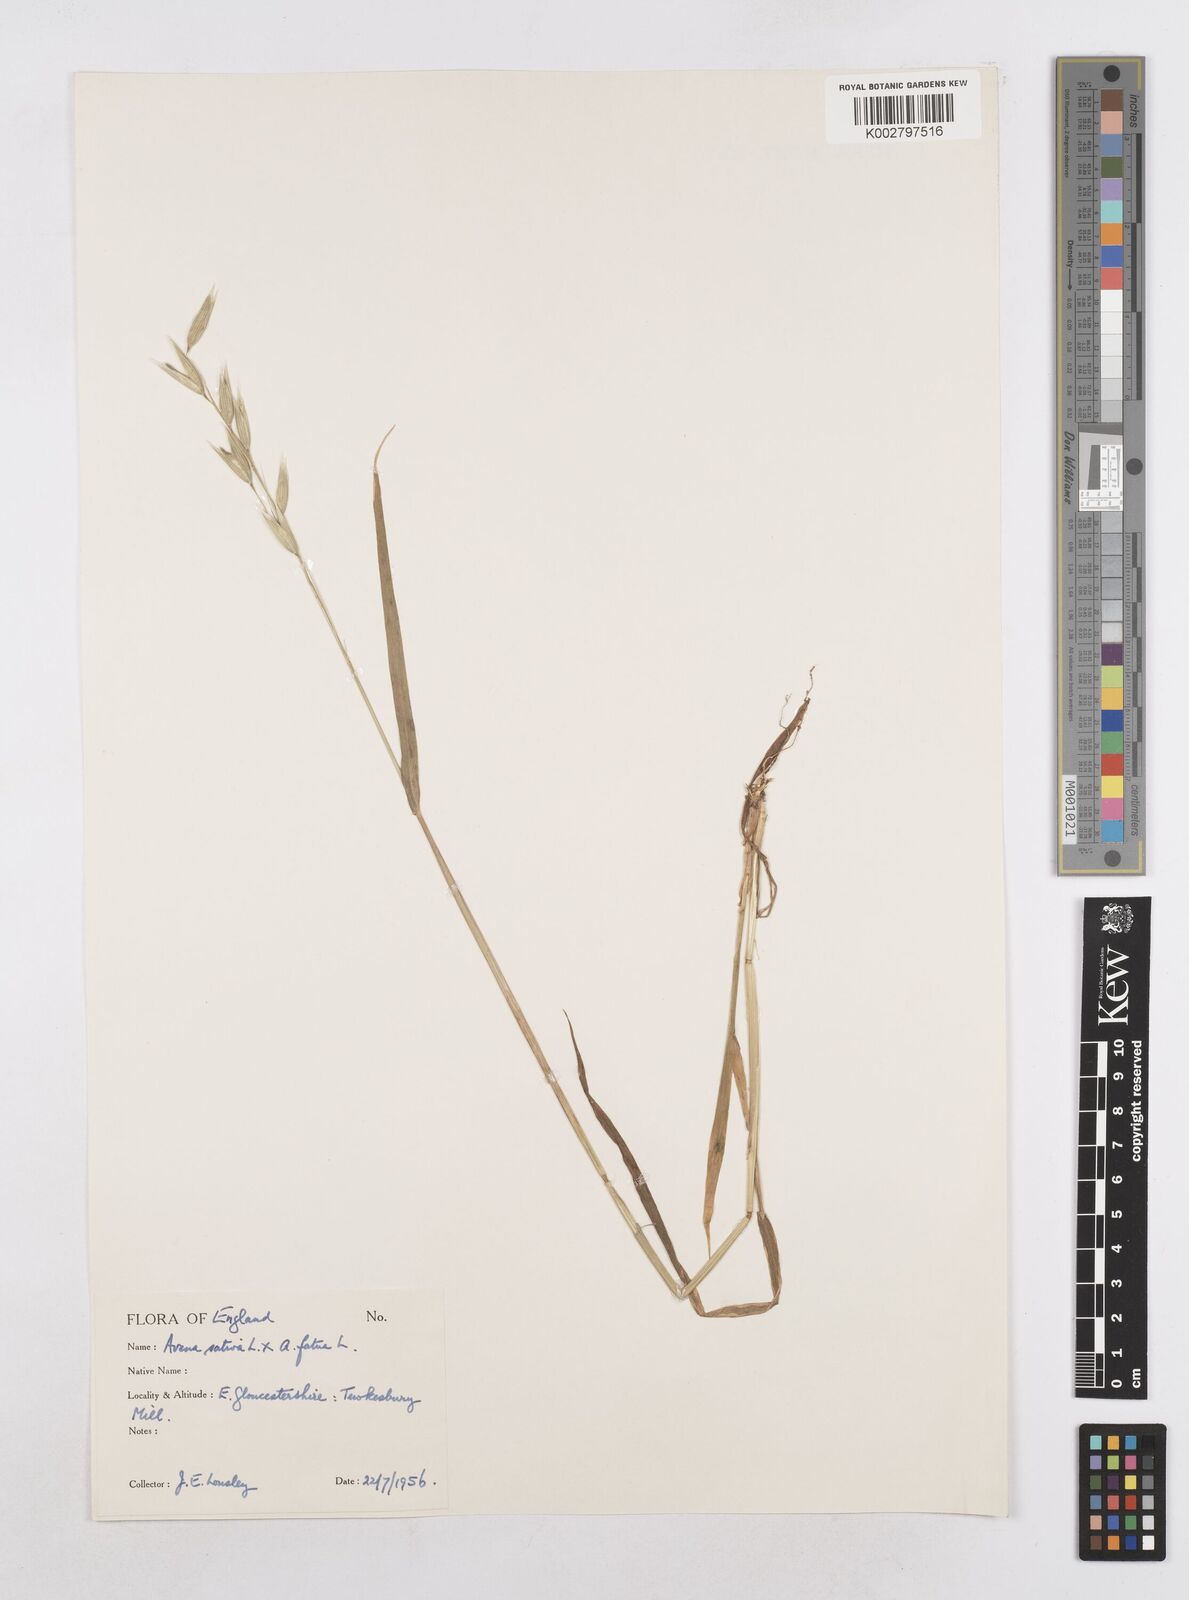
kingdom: Plantae
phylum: Tracheophyta
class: Liliopsida
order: Poales
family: Poaceae
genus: Avena
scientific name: Avena fatua
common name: Wild oat
